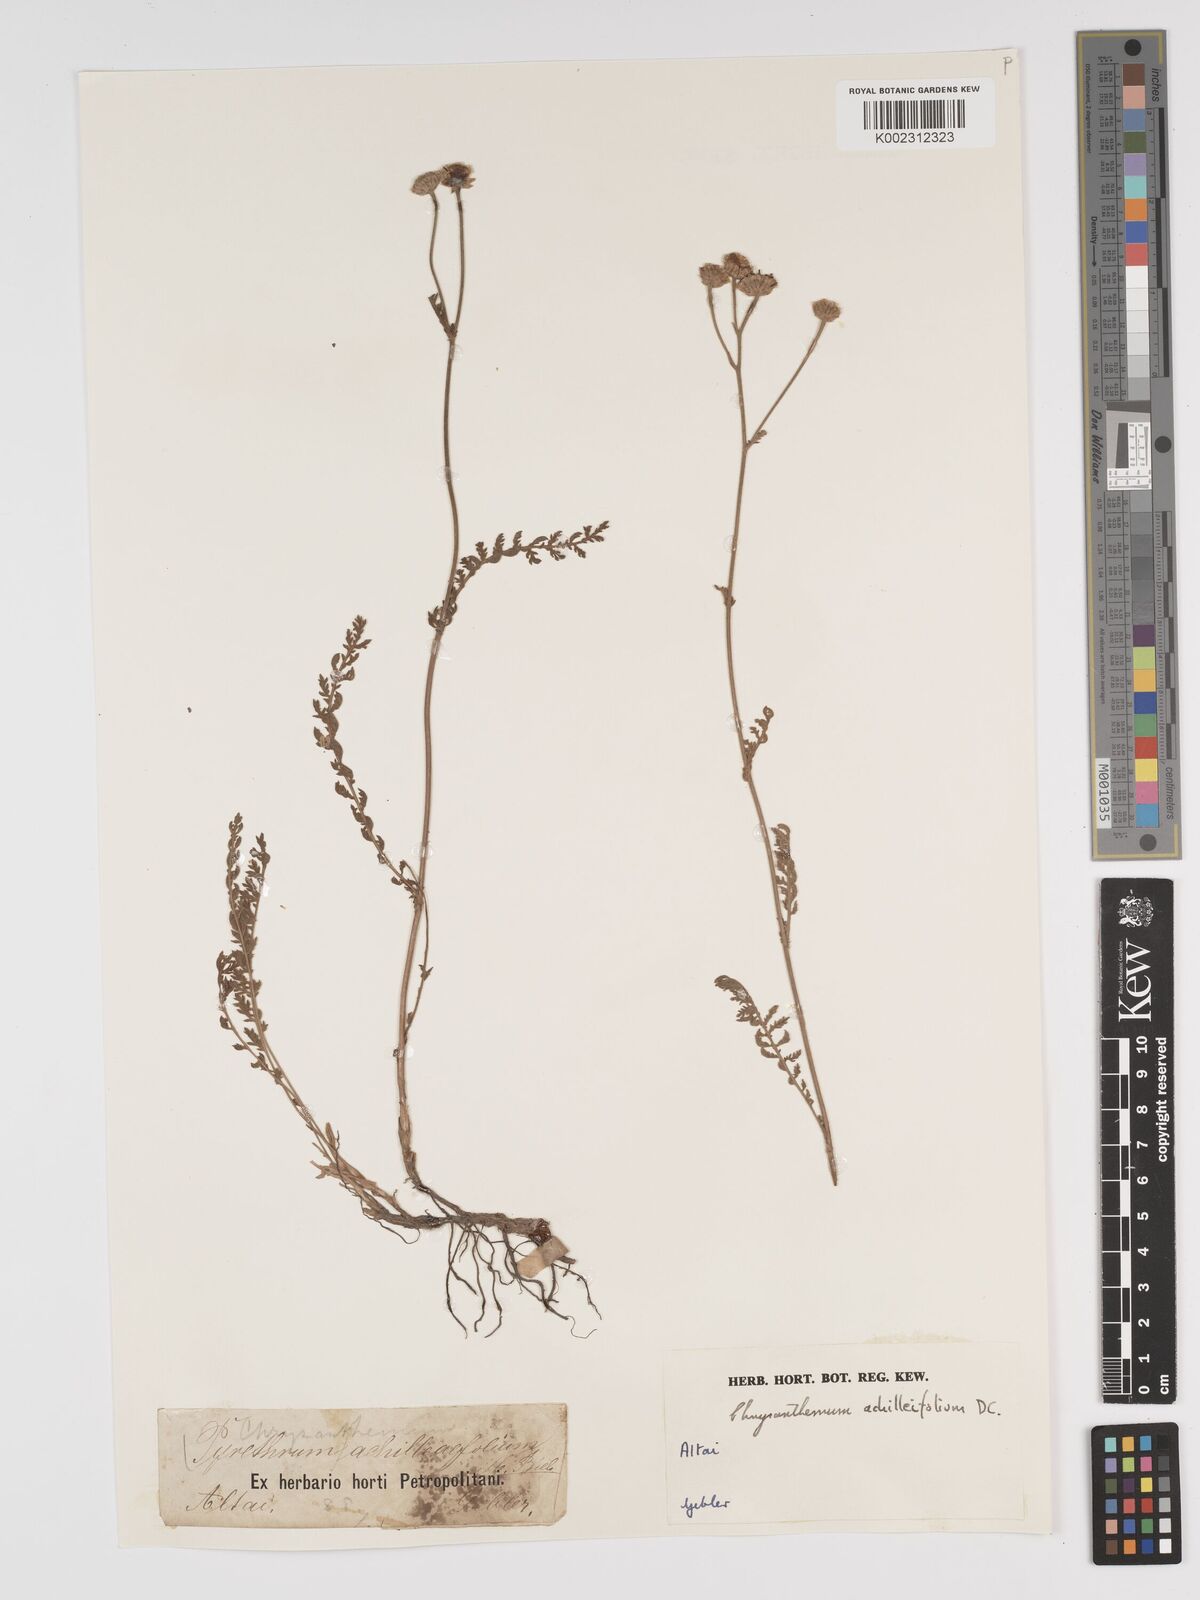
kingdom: Plantae
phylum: Tracheophyta
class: Magnoliopsida
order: Asterales
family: Asteraceae
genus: Tanacetum
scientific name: Tanacetum achilleifolium
